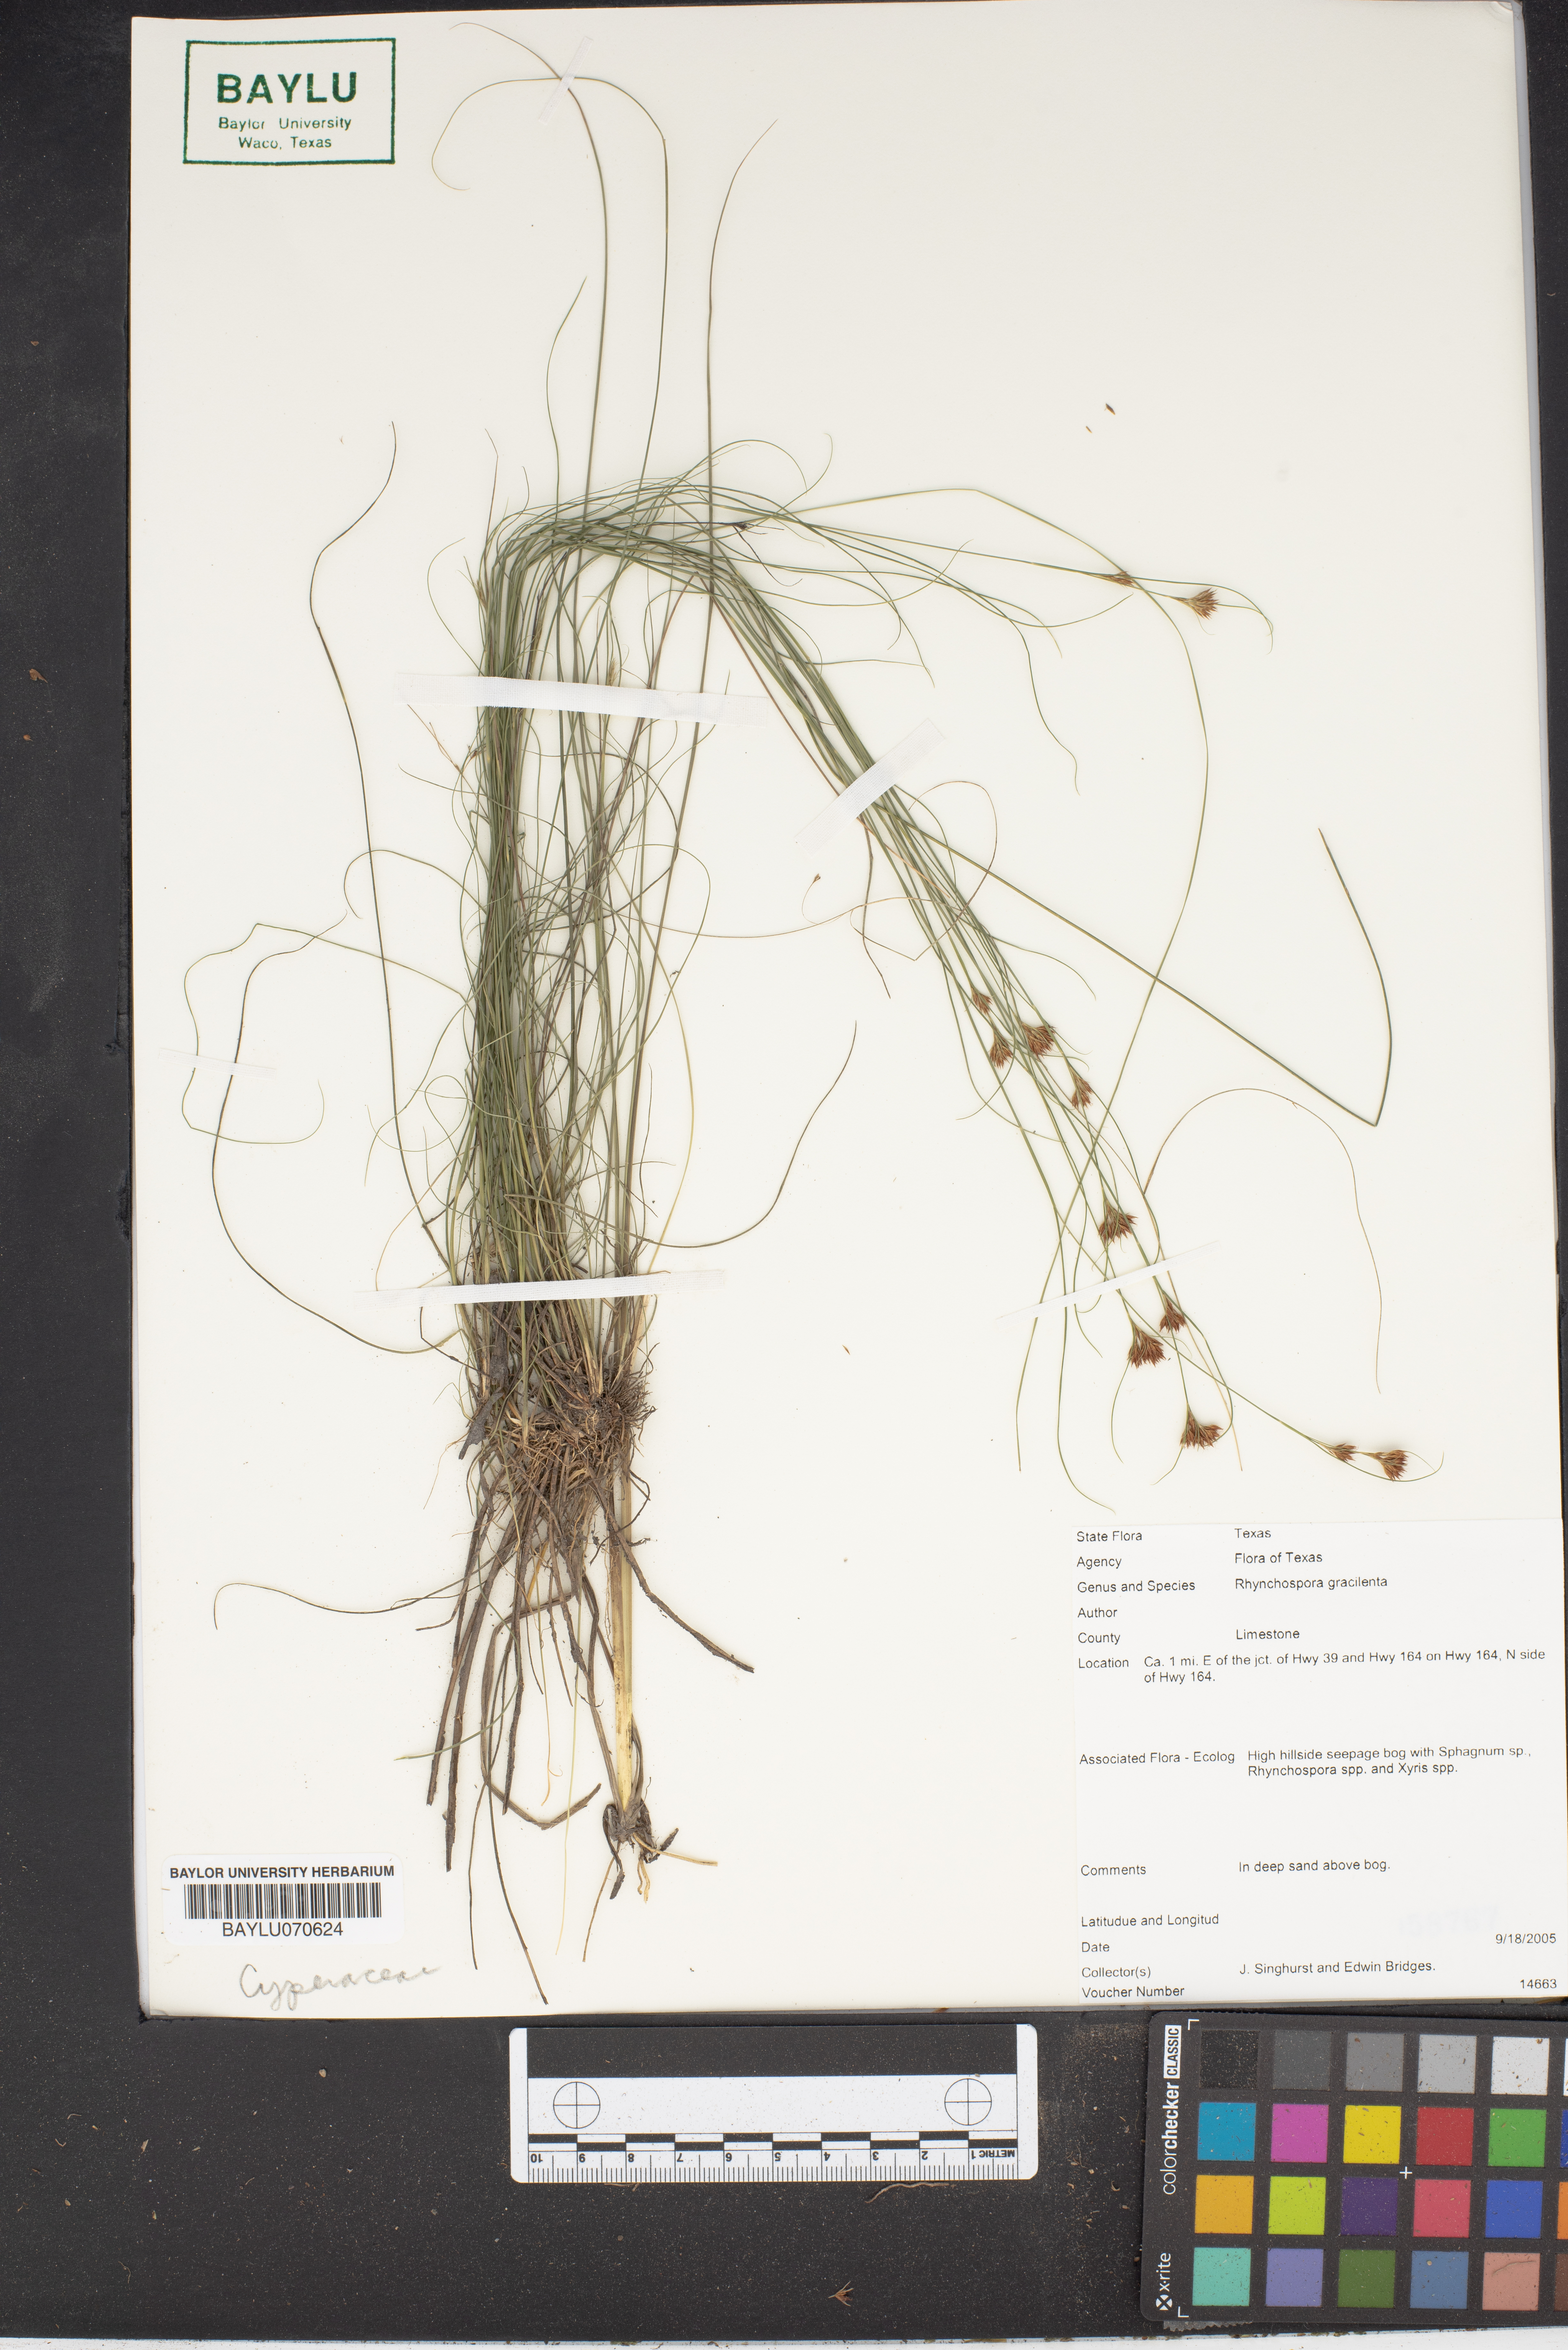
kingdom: Plantae
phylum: Tracheophyta
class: Liliopsida
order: Poales
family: Cyperaceae
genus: Rhynchospora
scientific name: Rhynchospora gracilenta
